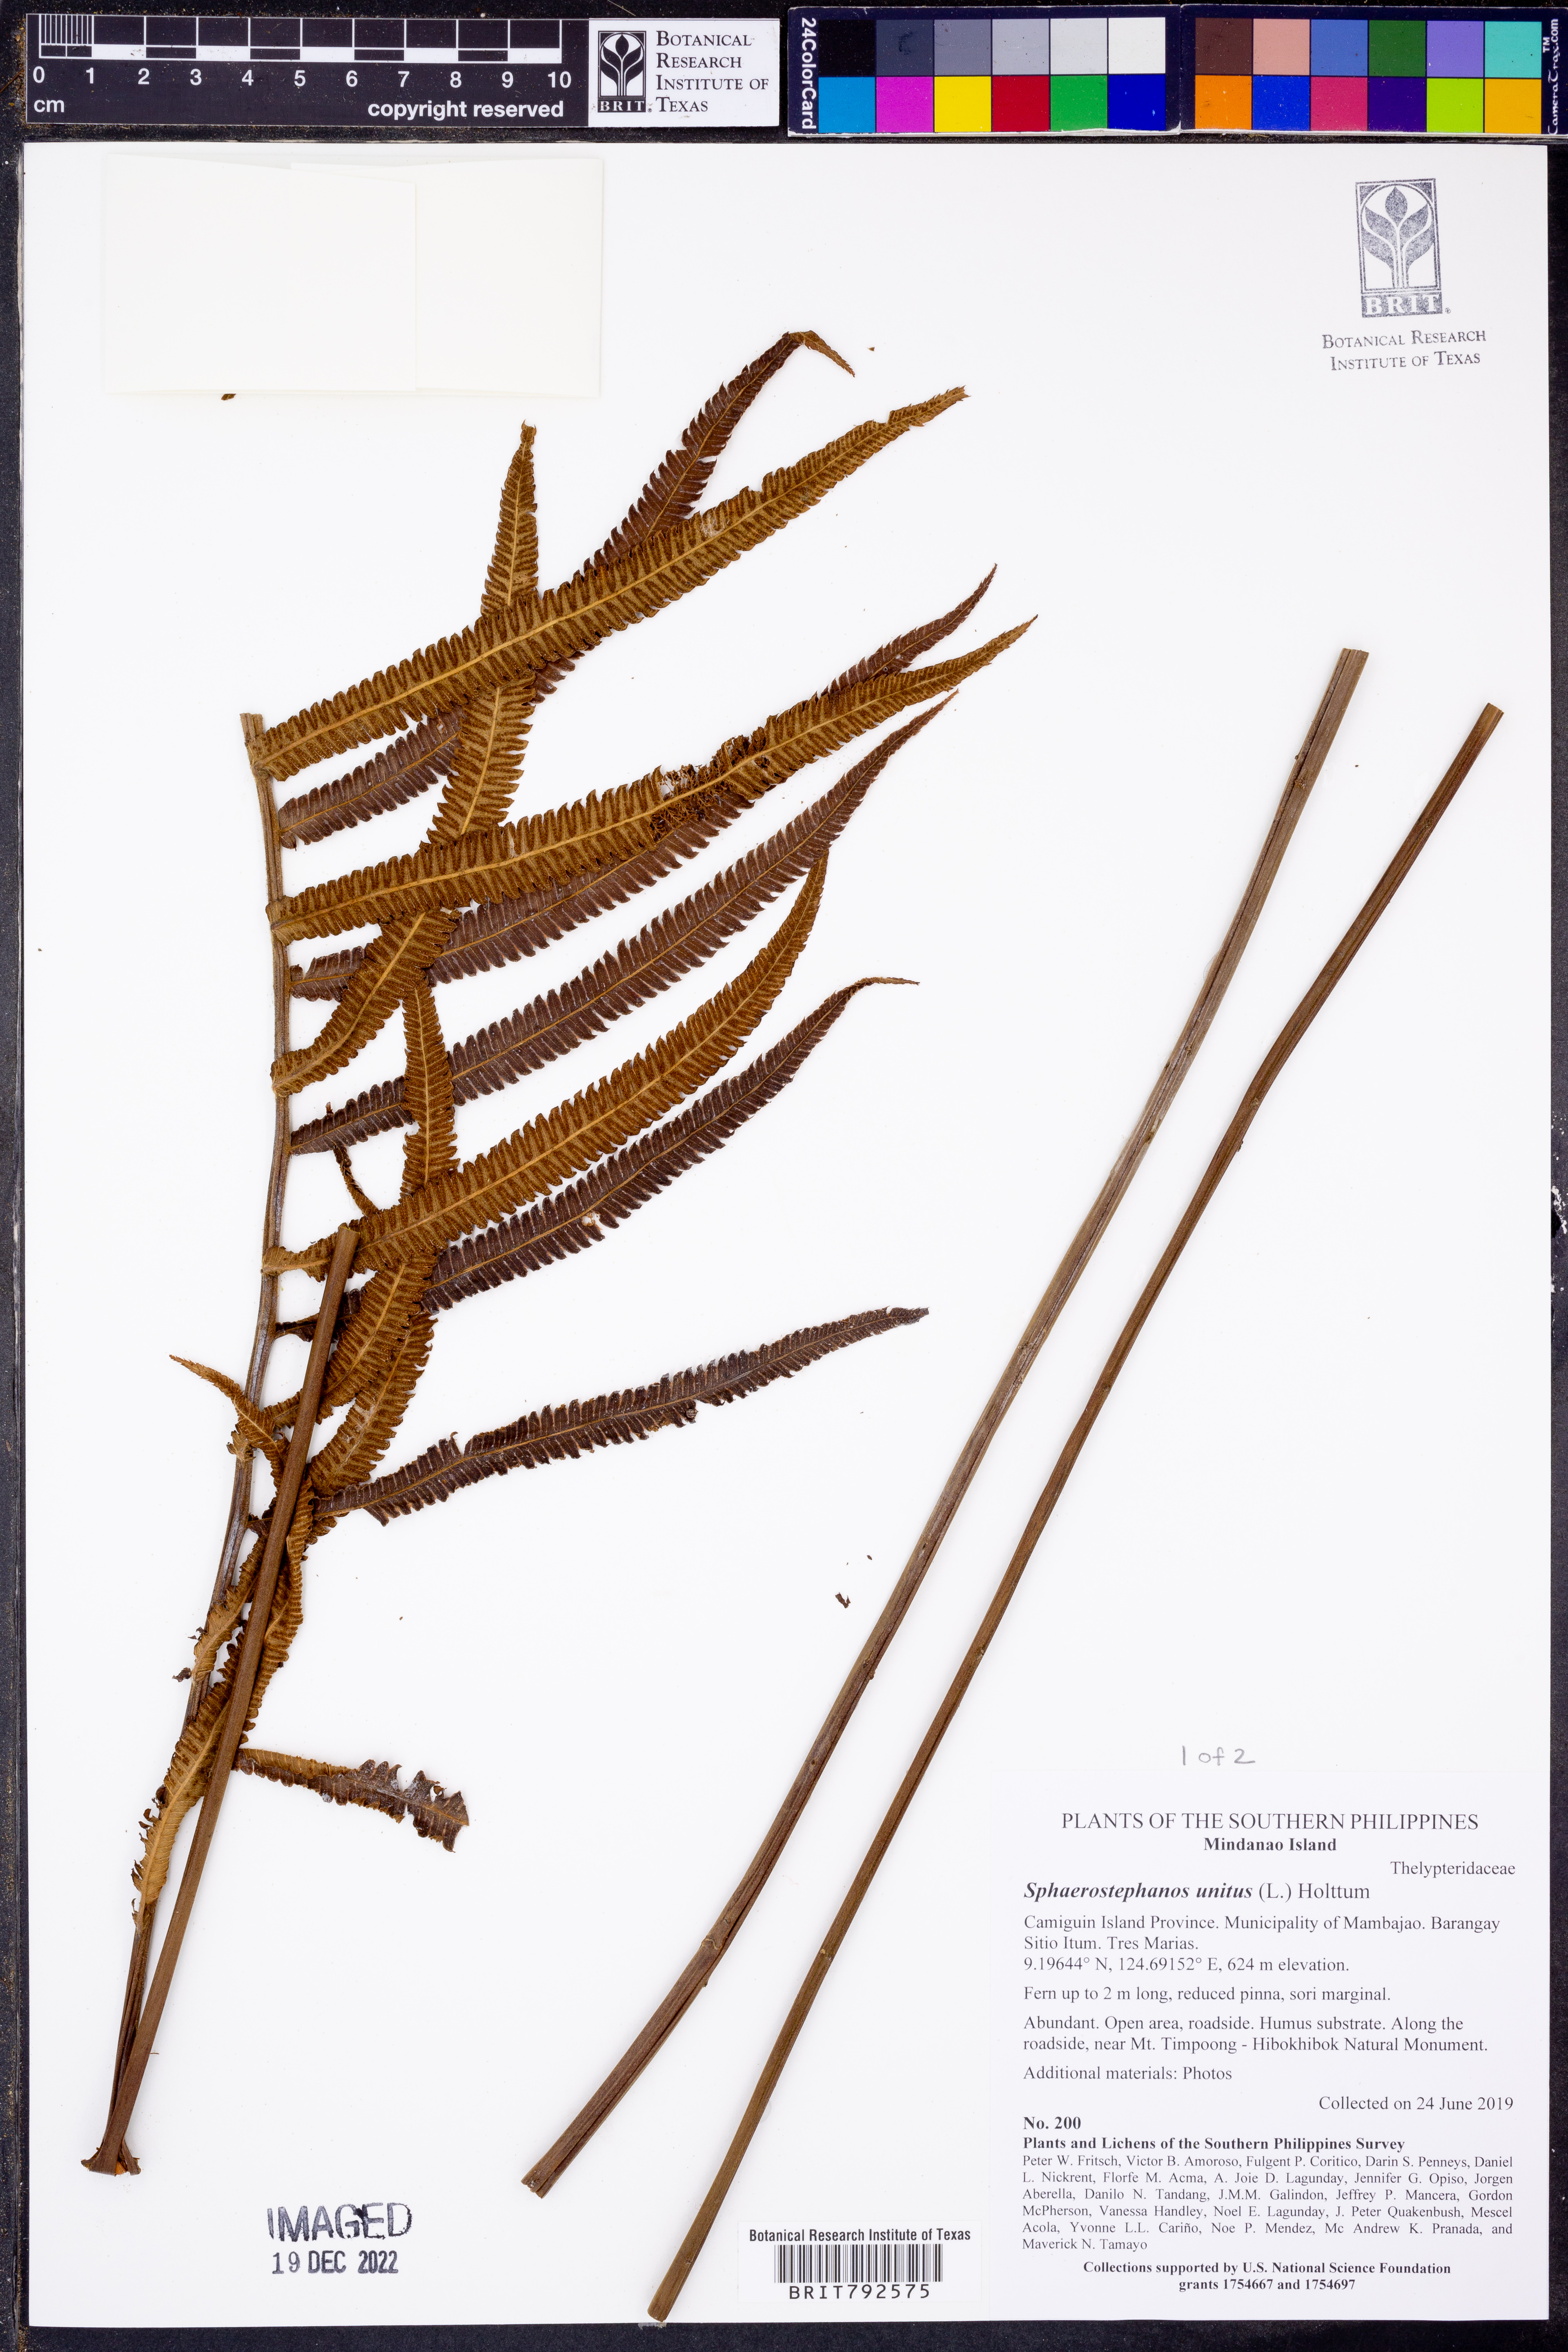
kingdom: Plantae
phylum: Tracheophyta
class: Polypodiopsida
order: Polypodiales
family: Thelypteridaceae
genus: Strophocaulon
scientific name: Strophocaulon unitum
